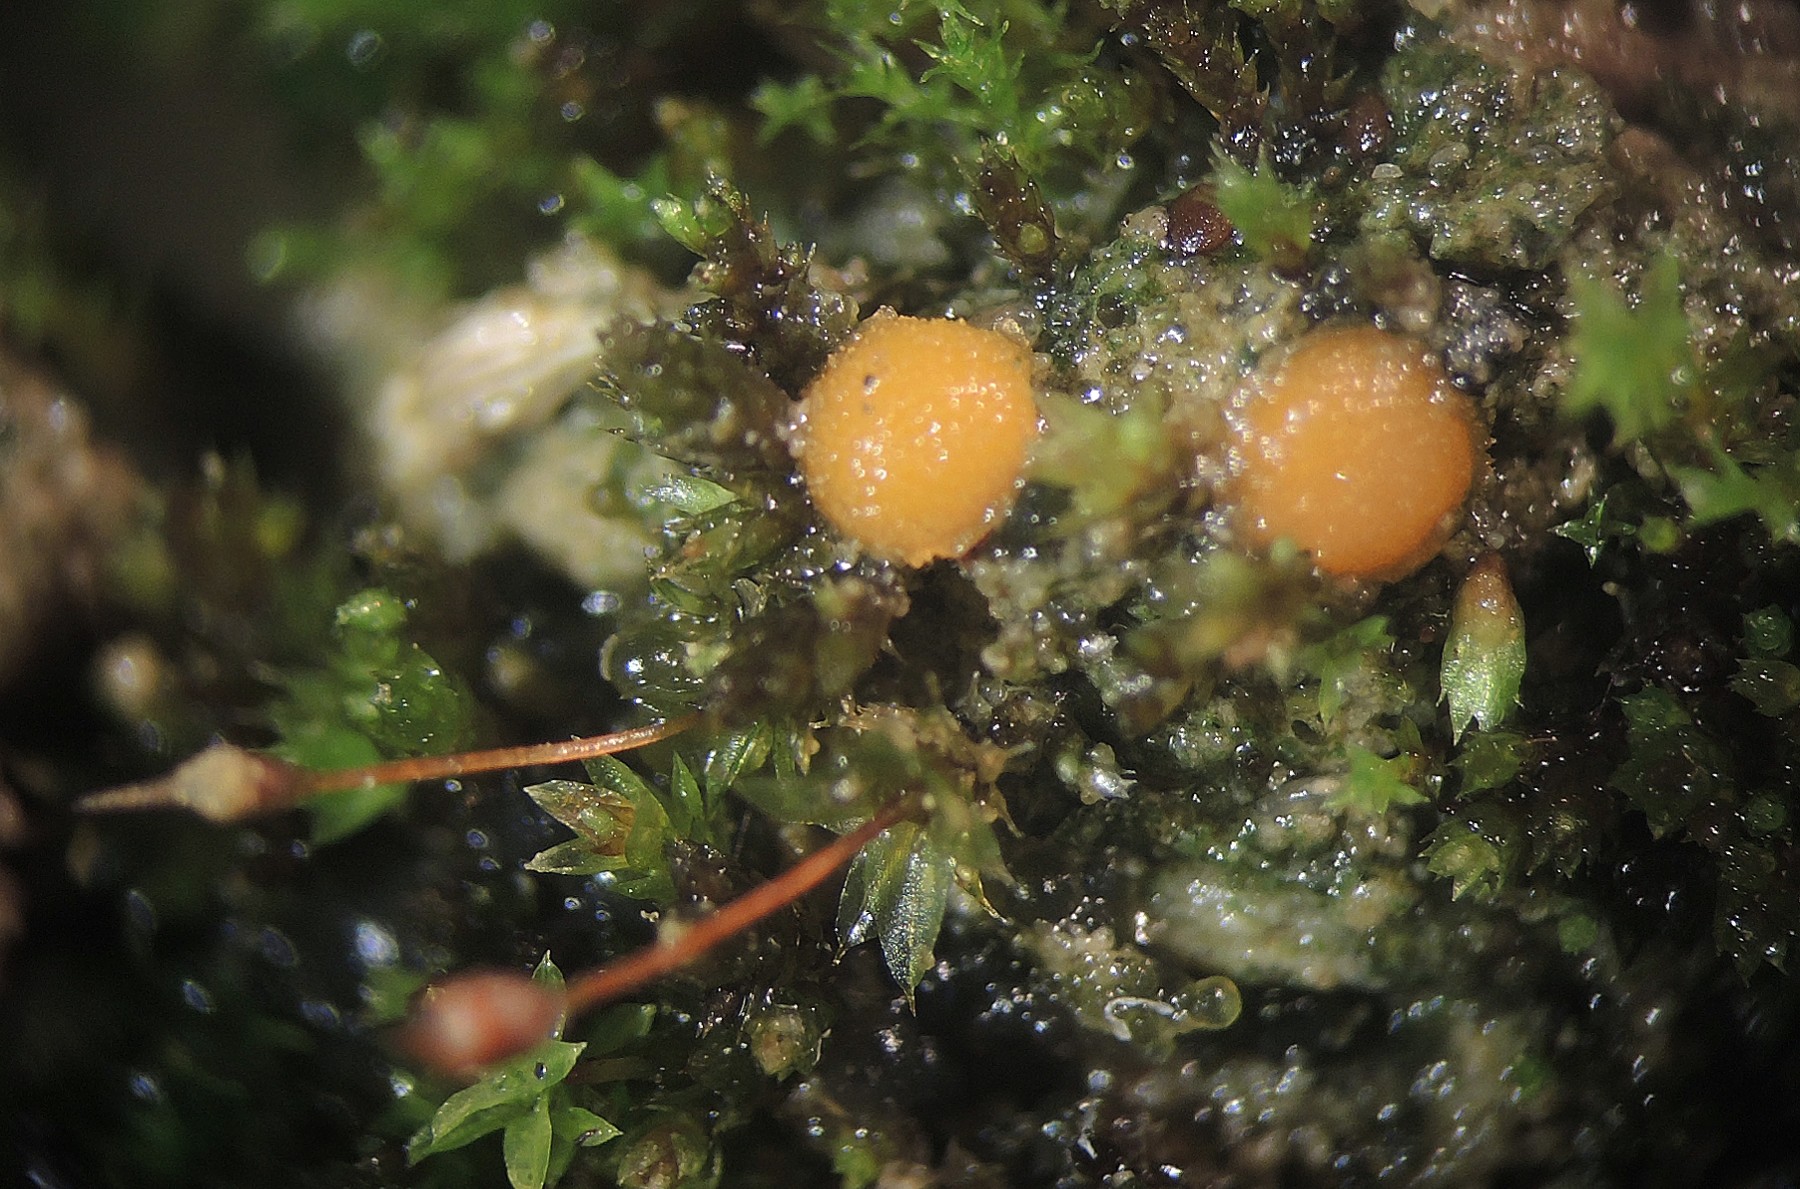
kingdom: Fungi
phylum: Ascomycota
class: Pezizomycetes
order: Pezizales
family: Pyronemataceae
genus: Octospora
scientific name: Octospora gemmicola
